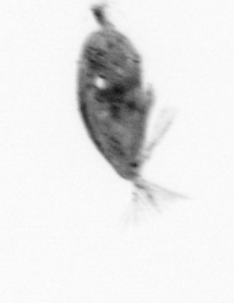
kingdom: Animalia
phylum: Arthropoda
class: Maxillopoda
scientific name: Maxillopoda
